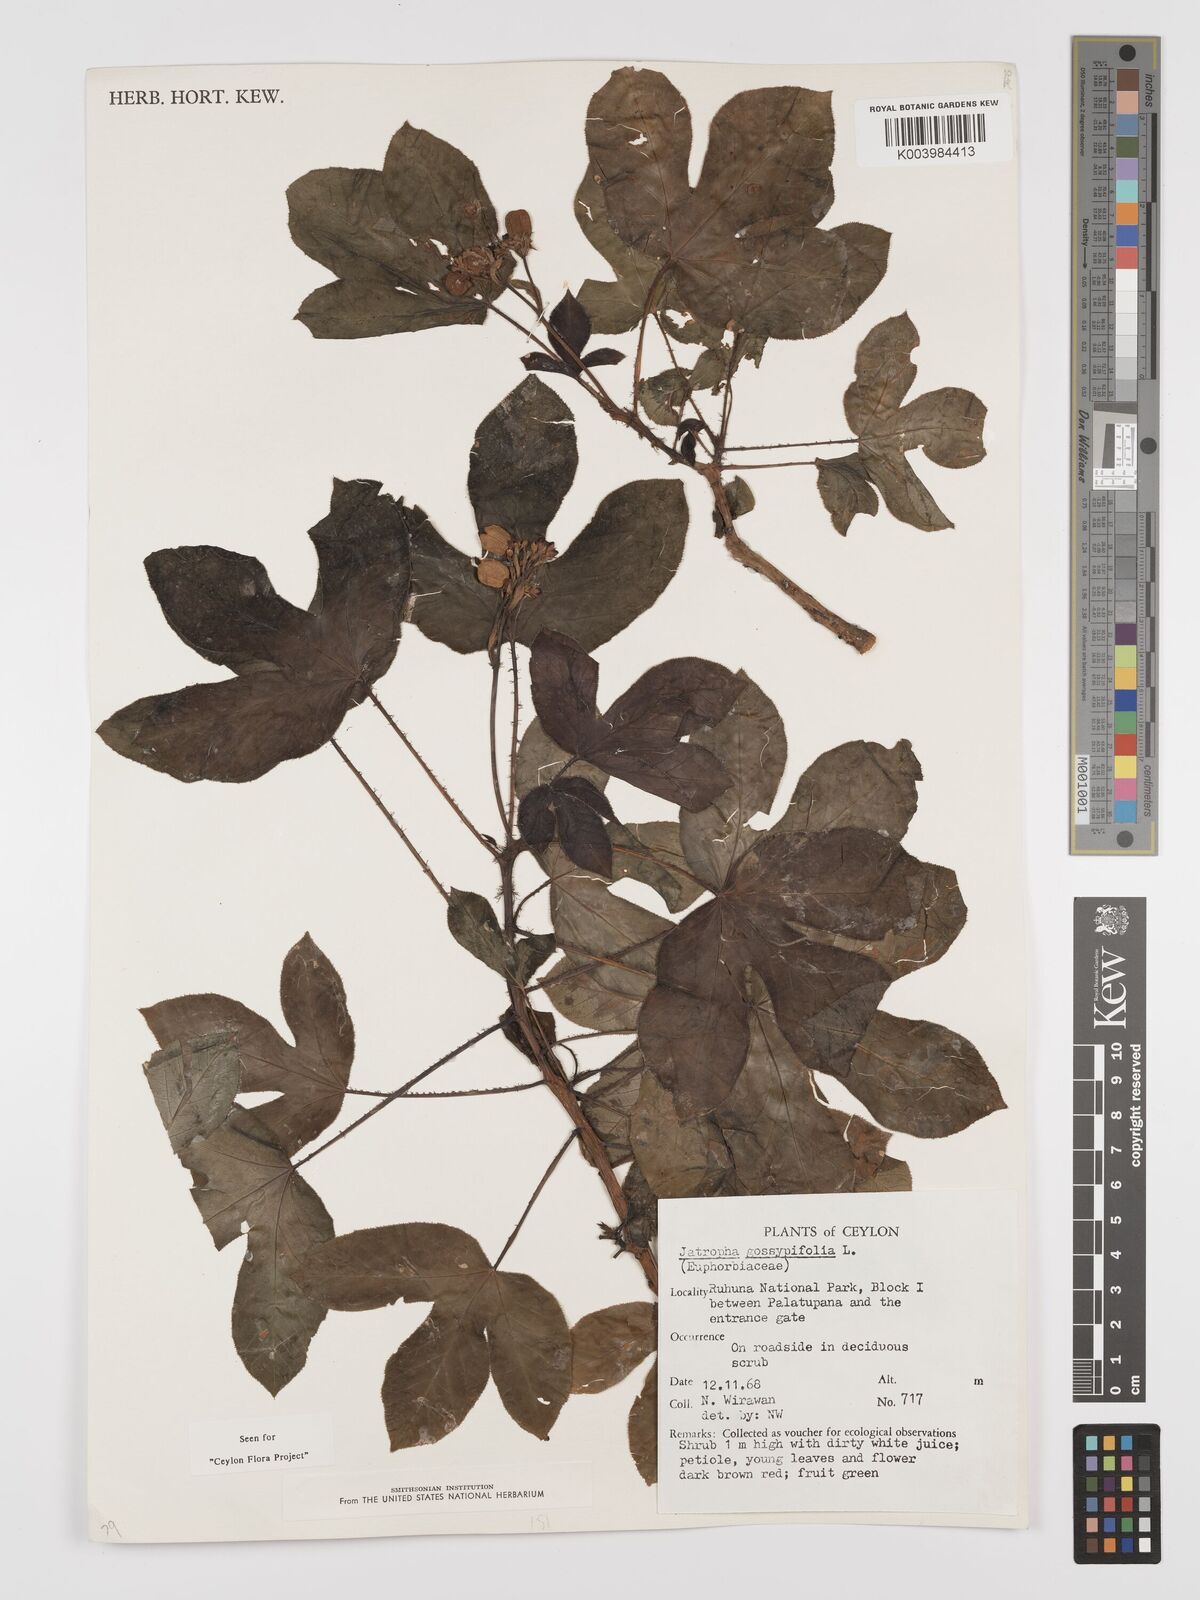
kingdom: Plantae
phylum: Tracheophyta
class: Magnoliopsida
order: Malpighiales
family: Euphorbiaceae
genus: Jatropha
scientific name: Jatropha gossypiifolia
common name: Bellyache bush
